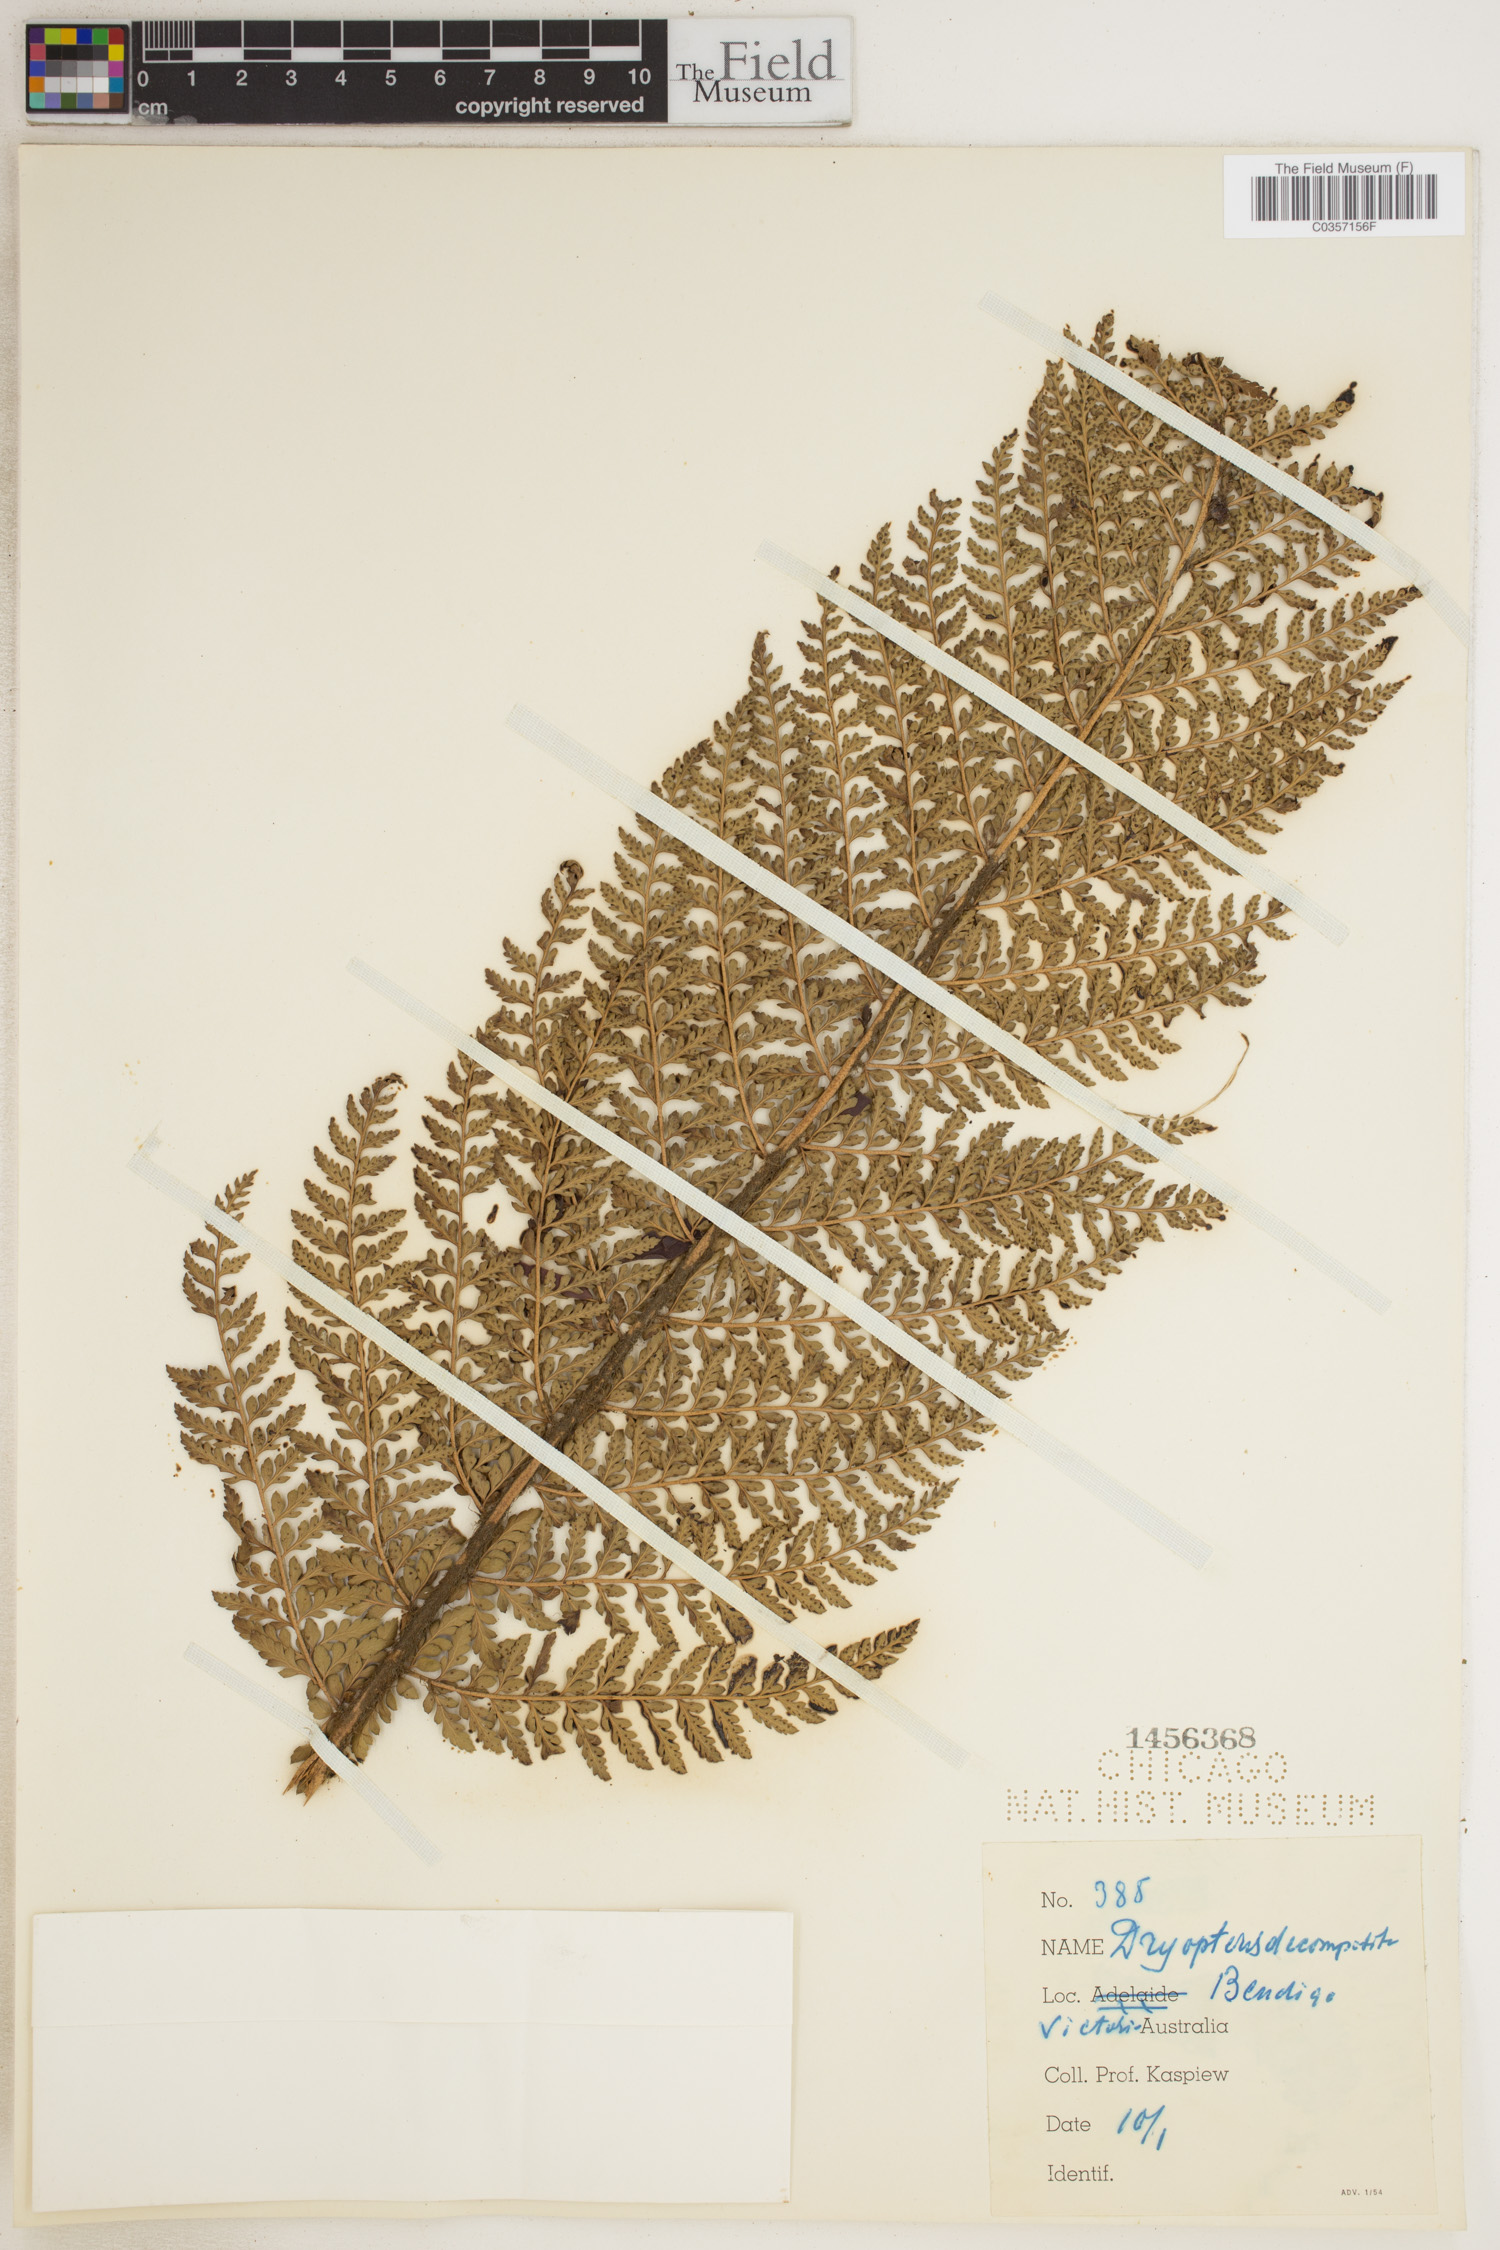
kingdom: Plantae
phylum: Tracheophyta
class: Polypodiopsida
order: Polypodiales
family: Dryopteridaceae
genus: Lastreopsis
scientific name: Lastreopsis decomposita
